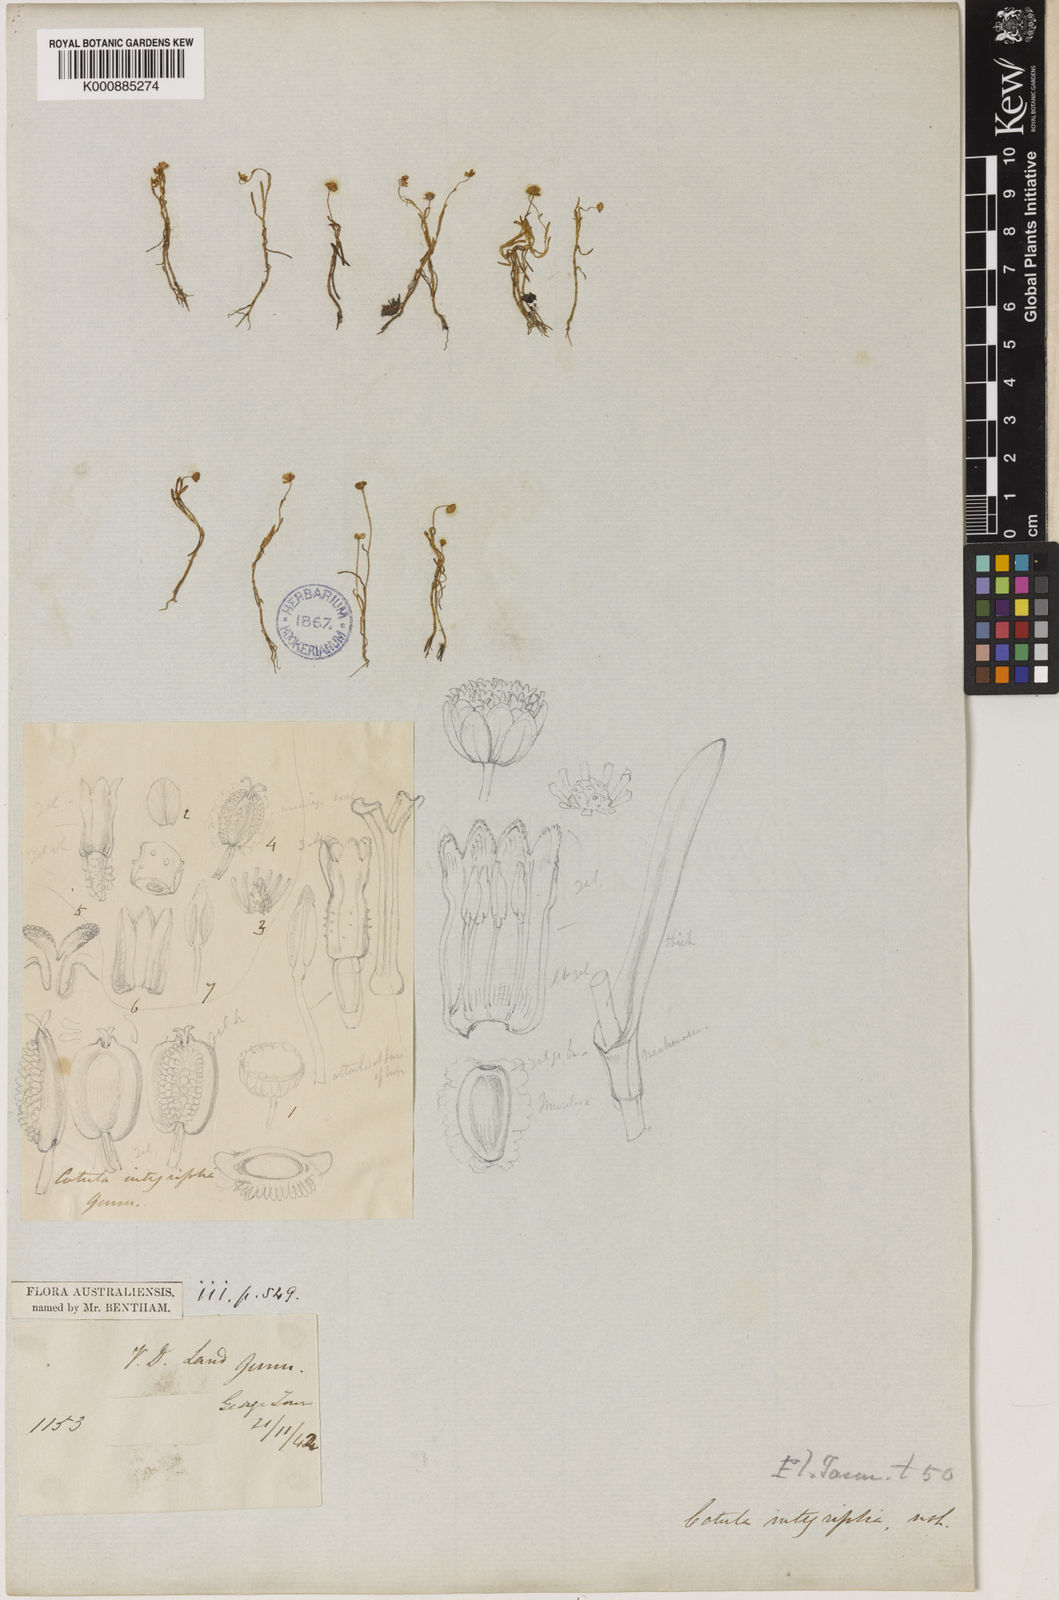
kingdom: Plantae
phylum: Tracheophyta
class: Magnoliopsida
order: Asterales
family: Asteraceae
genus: Cotula
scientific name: Cotula coronopifolia
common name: Buttonweed
